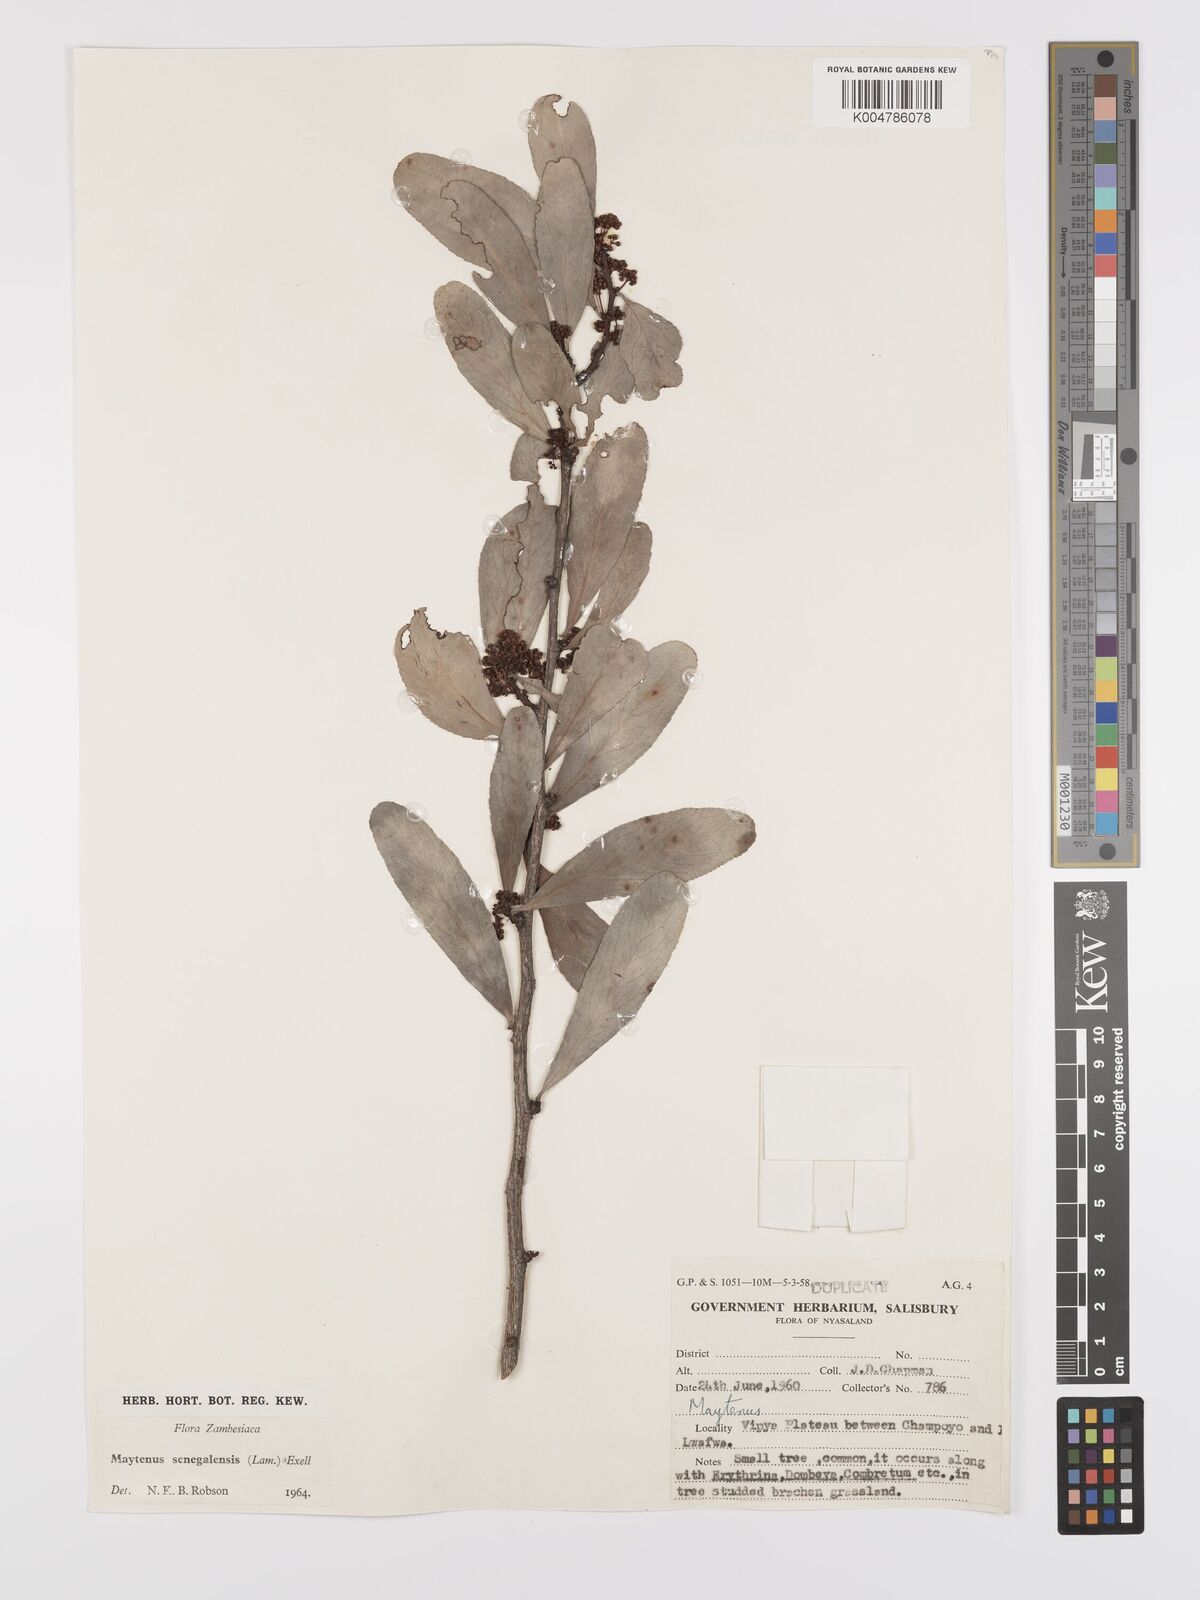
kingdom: Plantae
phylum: Tracheophyta
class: Magnoliopsida
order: Celastrales
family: Celastraceae
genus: Gymnosporia
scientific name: Gymnosporia senegalensis
